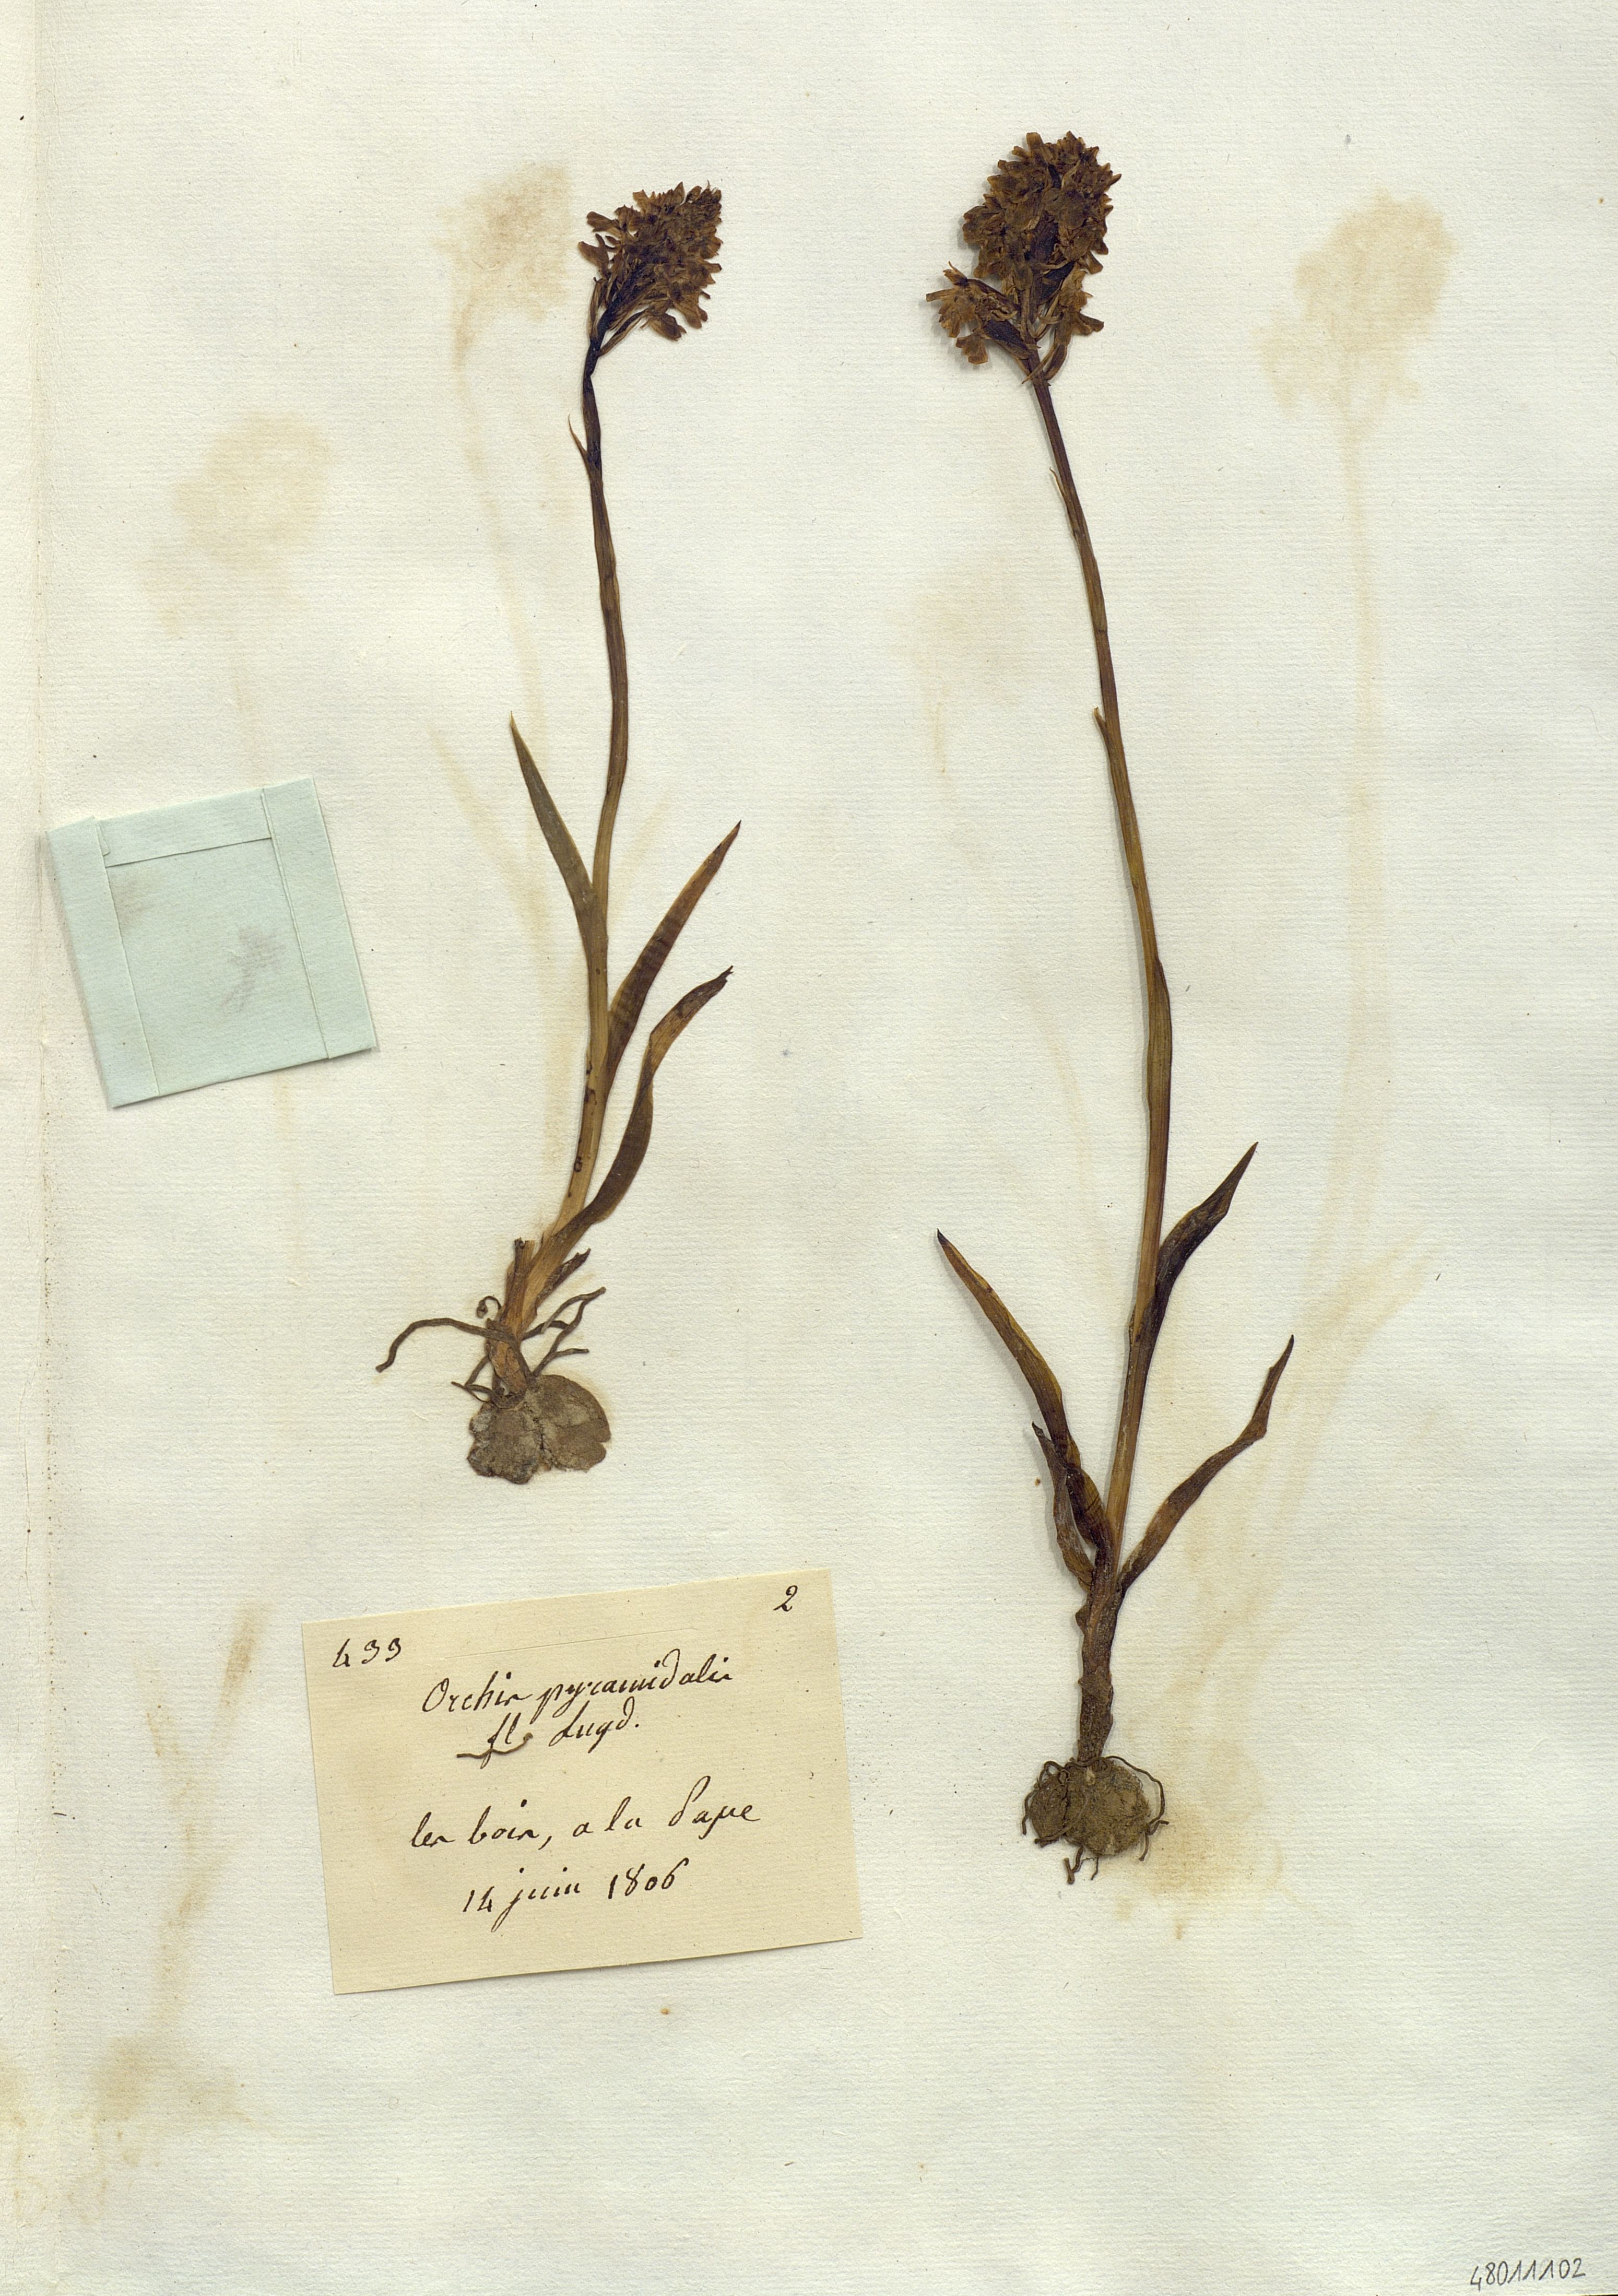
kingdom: Plantae
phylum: Tracheophyta
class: Liliopsida
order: Asparagales
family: Orchidaceae
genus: Orchis
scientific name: Orchis pyramidalis
